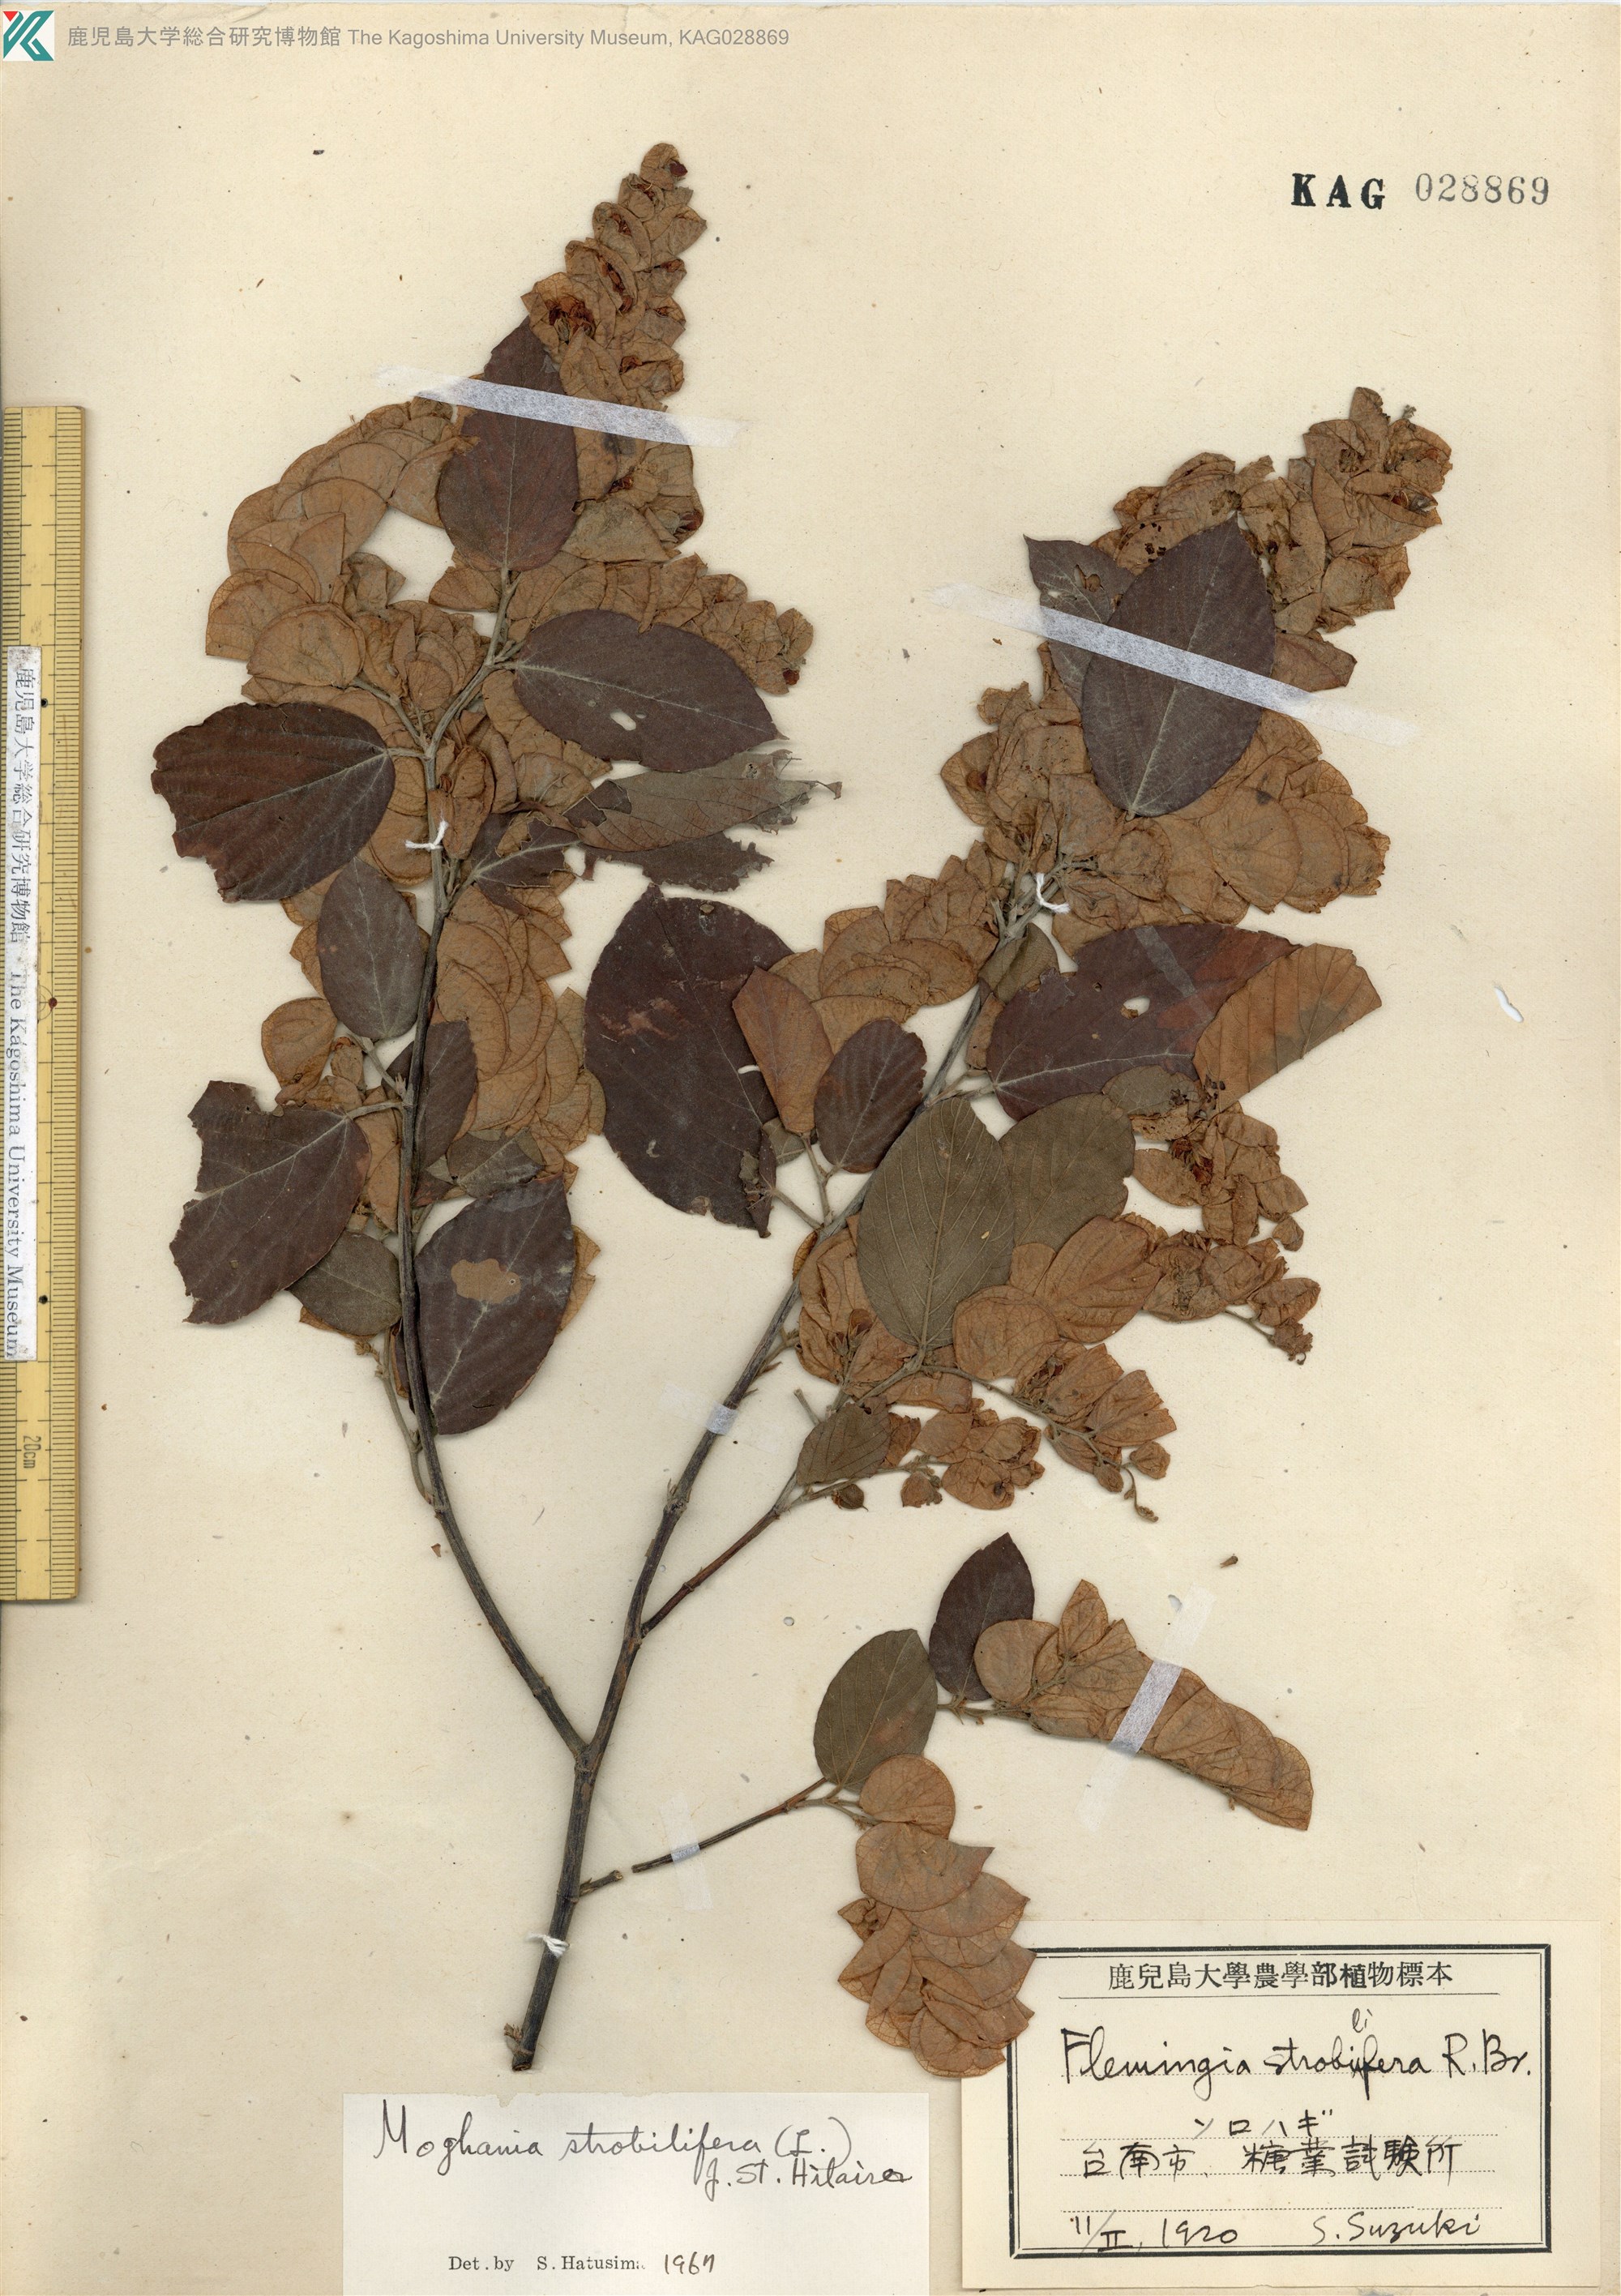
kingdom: Plantae
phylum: Tracheophyta
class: Magnoliopsida
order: Fabales
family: Fabaceae
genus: Flemingia
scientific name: Flemingia strobilifera
